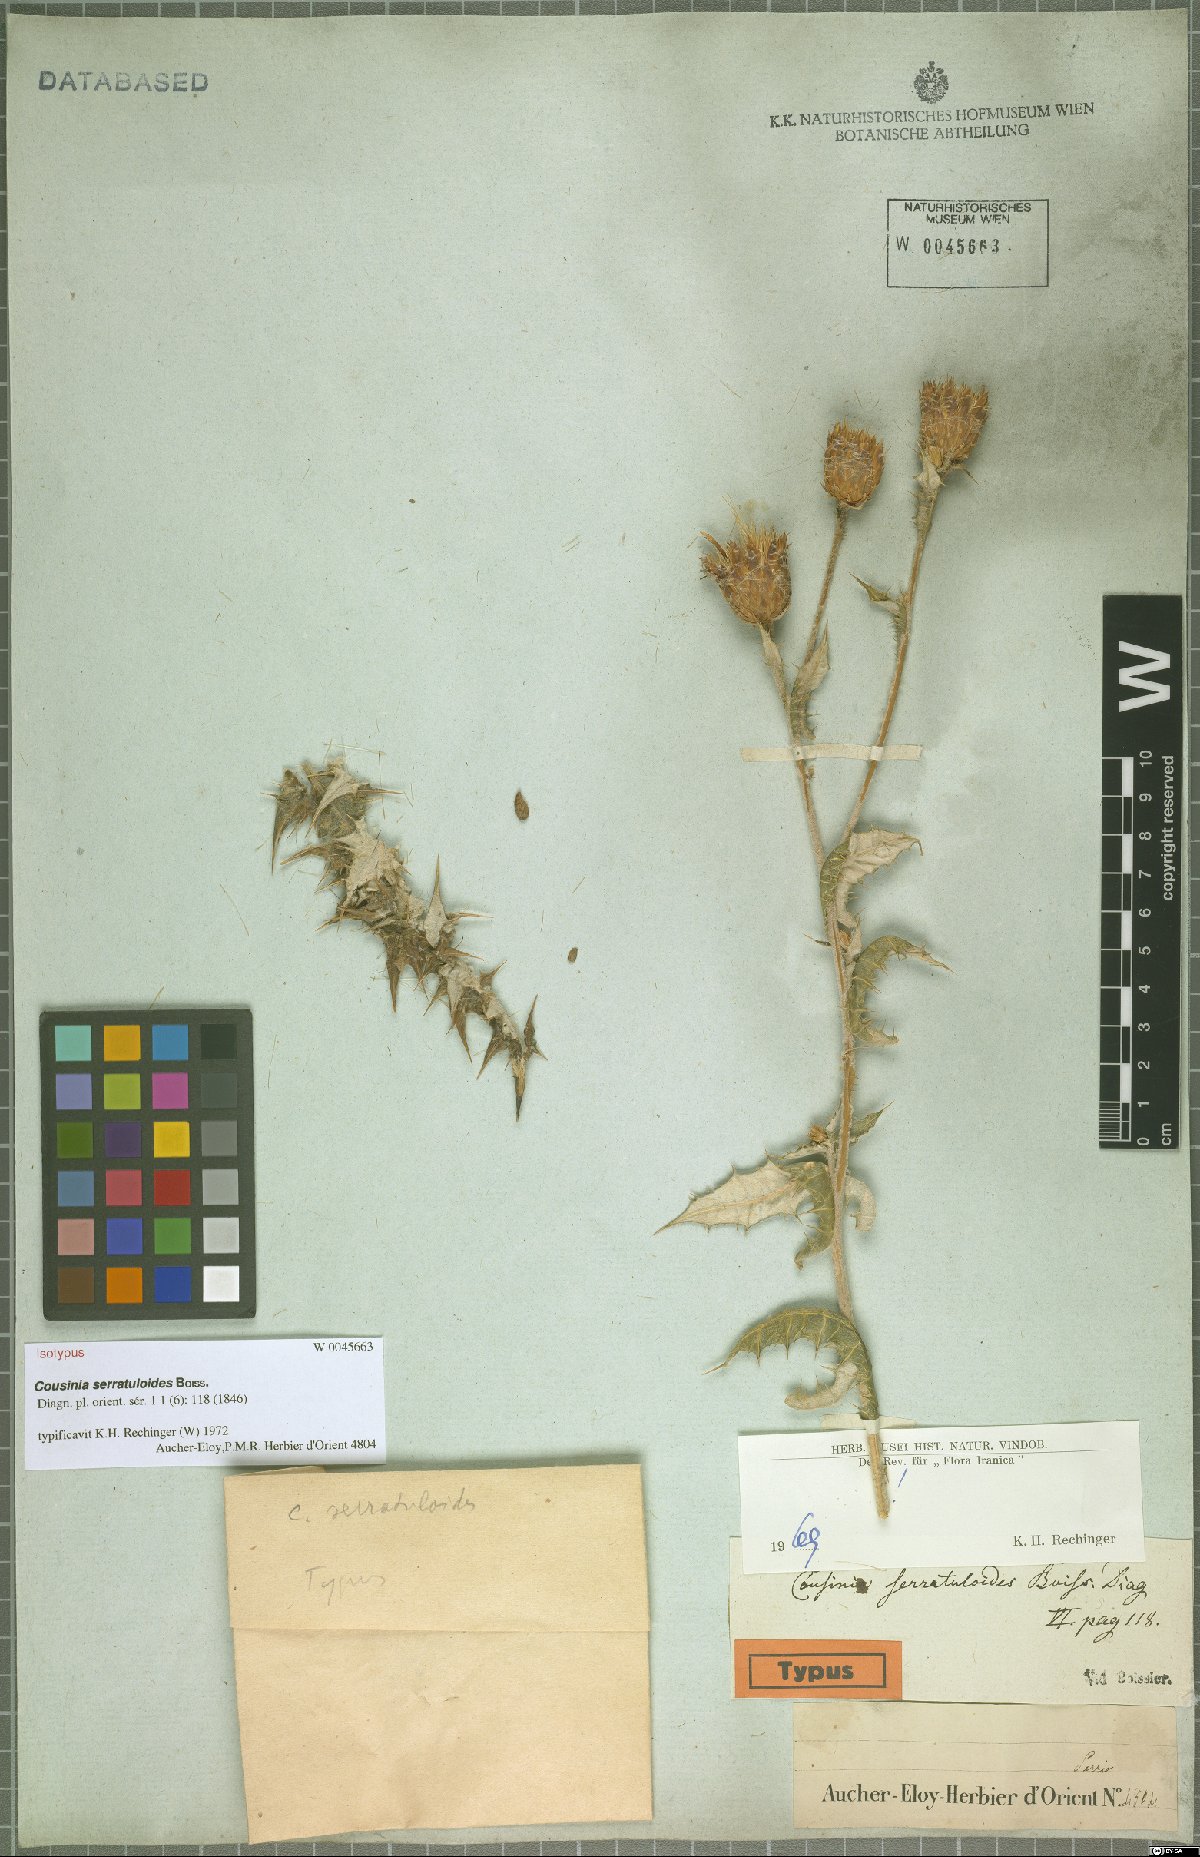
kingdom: Plantae
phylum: Tracheophyta
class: Magnoliopsida
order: Asterales
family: Asteraceae
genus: Cousinia
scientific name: Cousinia serratuloides
